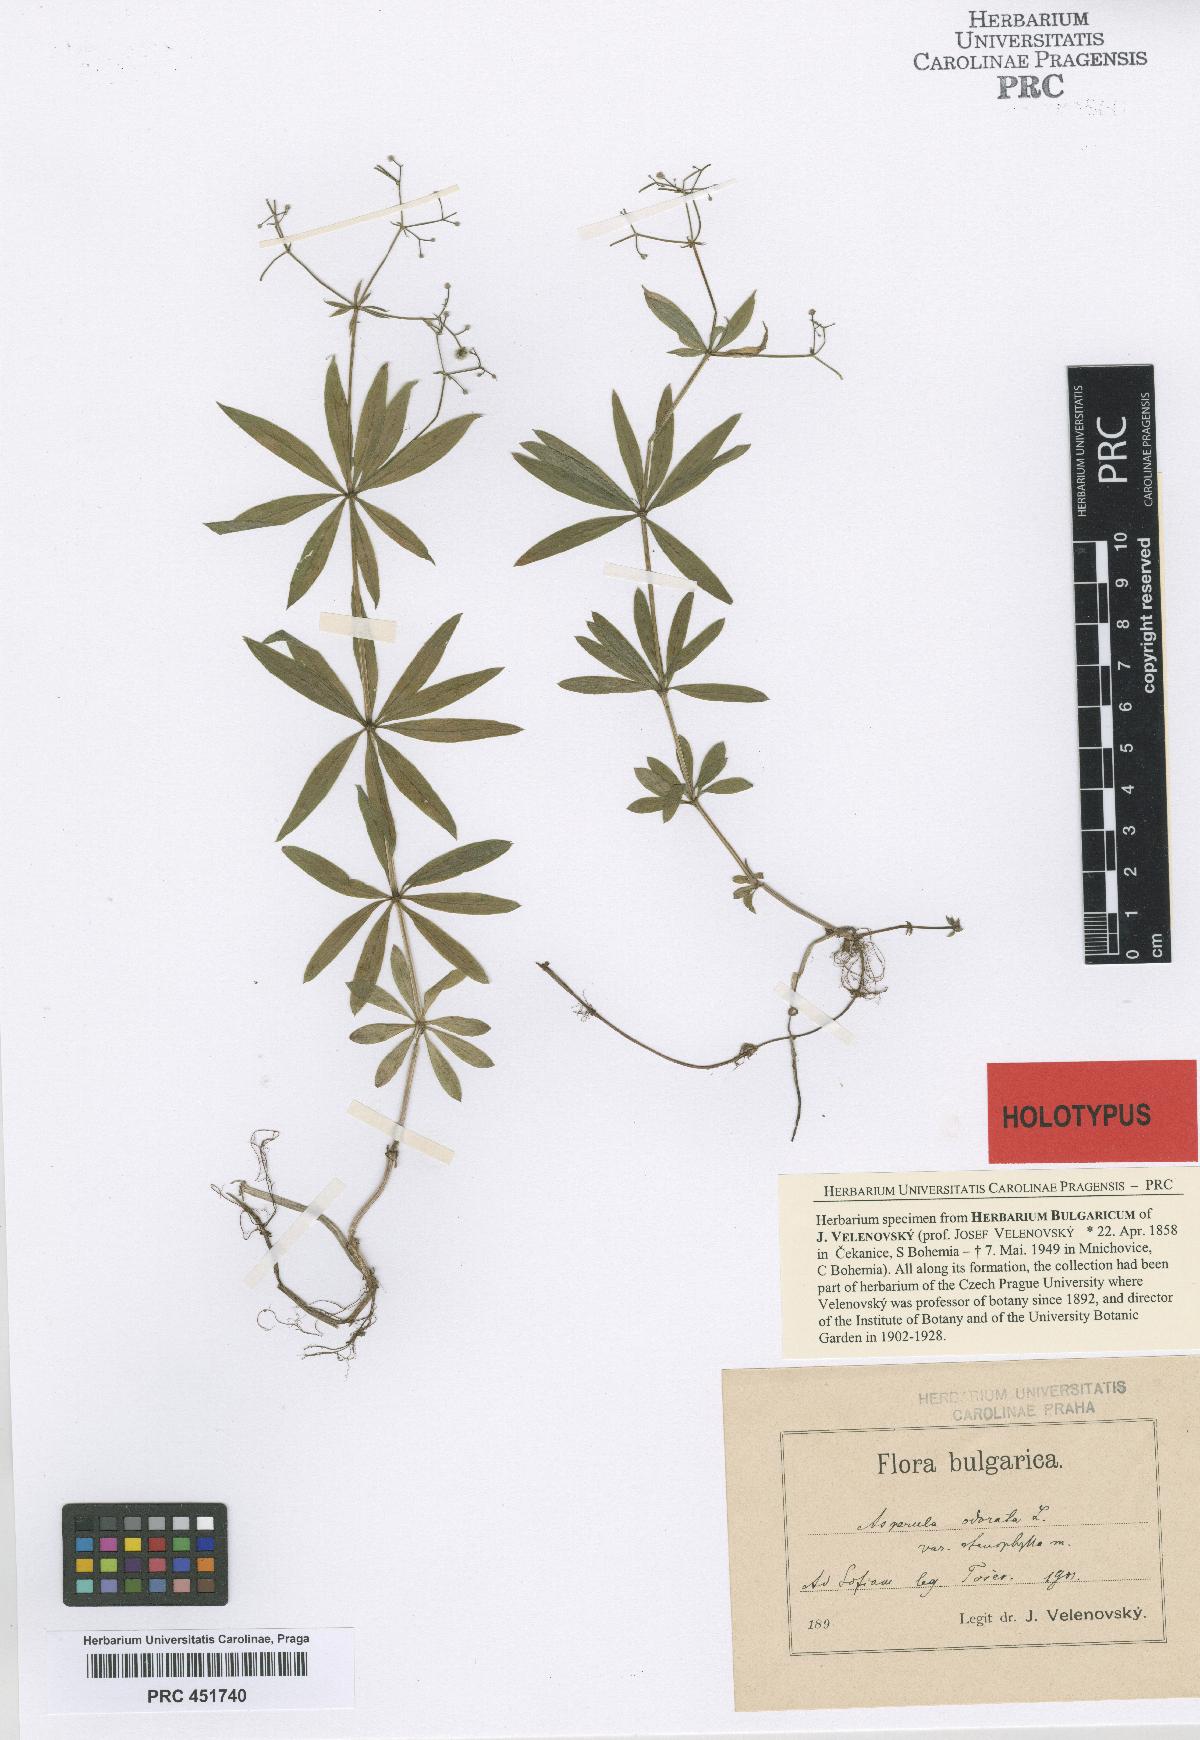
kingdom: Plantae
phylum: Tracheophyta
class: Magnoliopsida
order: Gentianales
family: Rubiaceae
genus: Galium
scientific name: Galium odoratum
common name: Sweet woodruff
